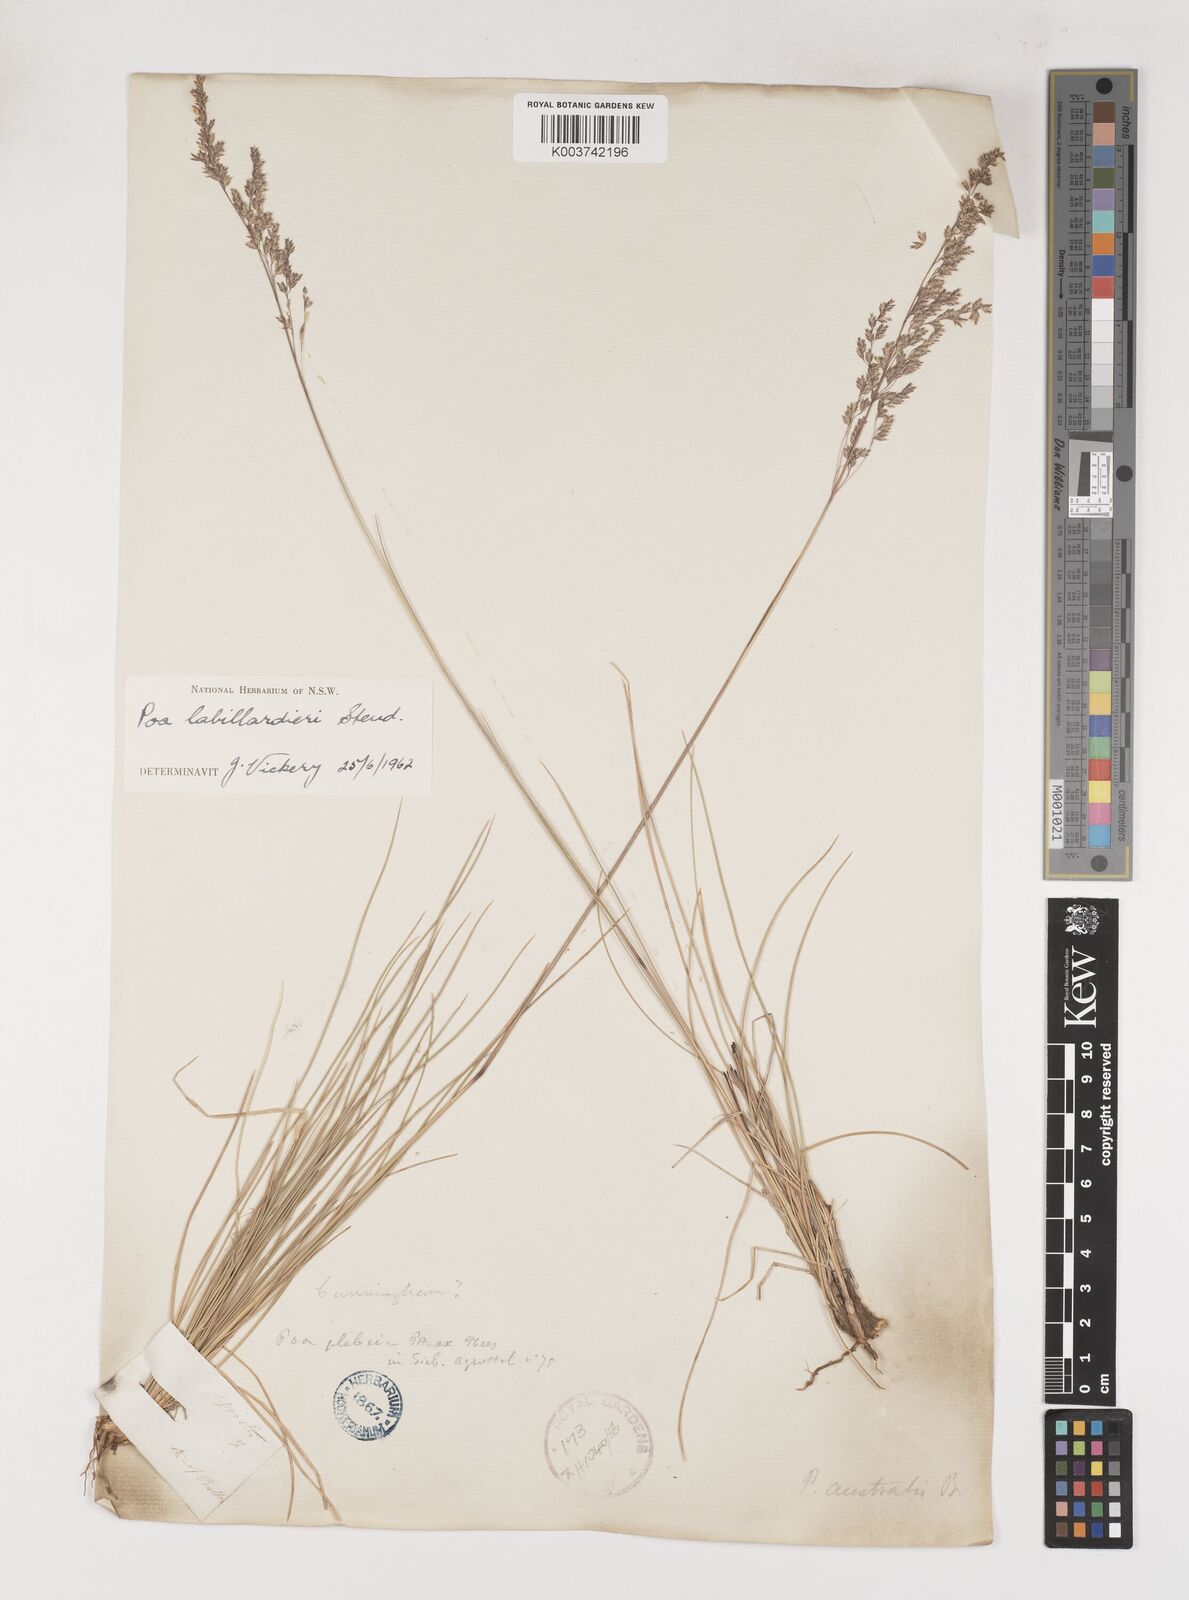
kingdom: Plantae
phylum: Tracheophyta
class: Liliopsida
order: Poales
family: Poaceae
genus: Poa
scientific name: Poa labillardierei
